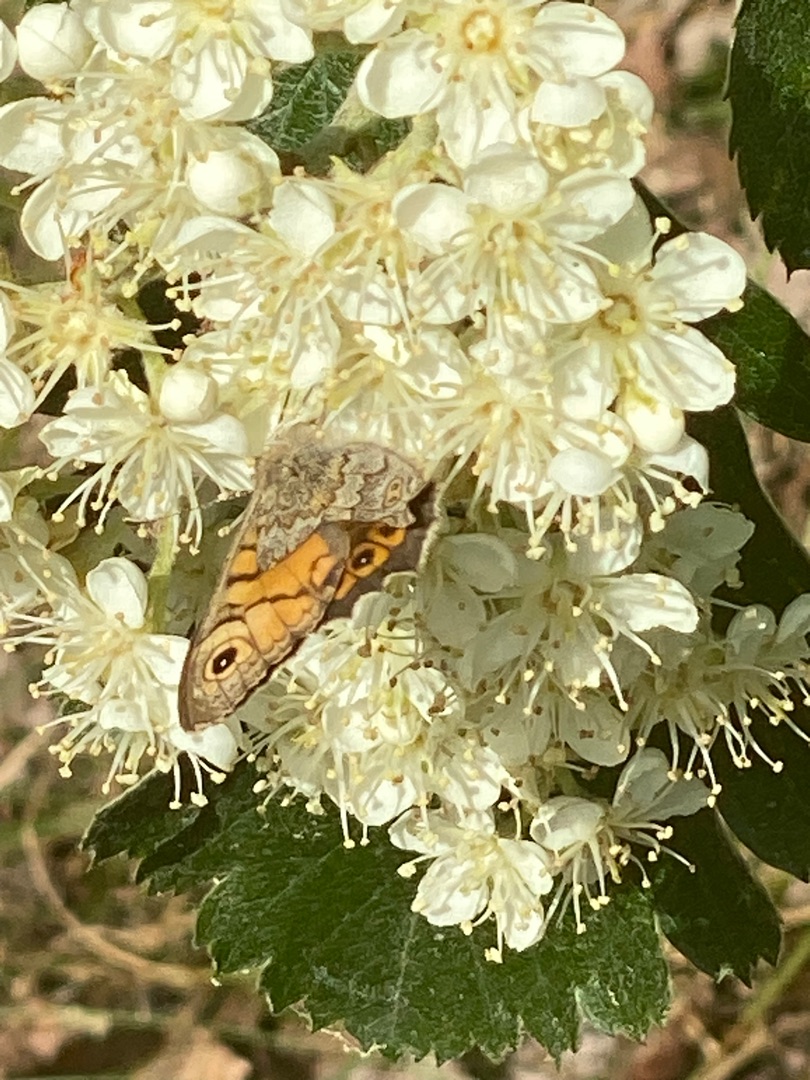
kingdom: Animalia
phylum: Arthropoda
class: Insecta
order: Lepidoptera
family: Nymphalidae
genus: Pararge
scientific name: Pararge Lasiommata megera
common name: Vejrandøje
